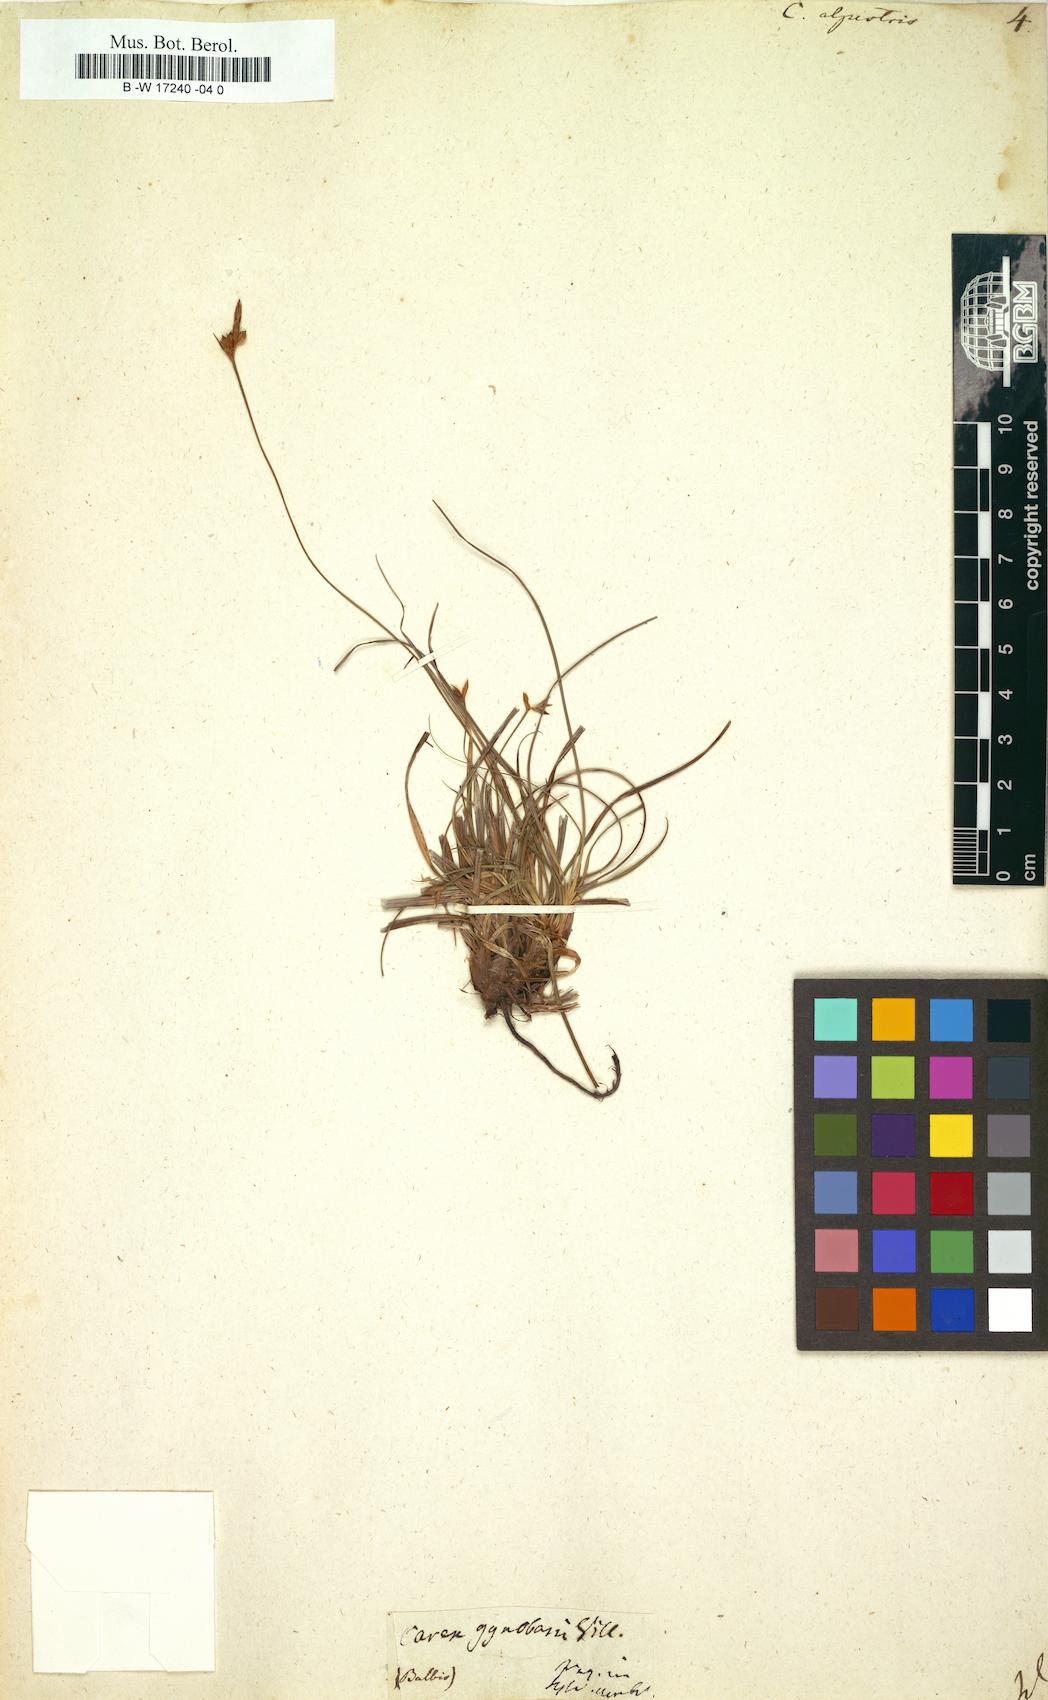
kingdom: Plantae
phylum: Tracheophyta
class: Liliopsida
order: Poales
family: Cyperaceae
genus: Carex
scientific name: Carex halleriana
